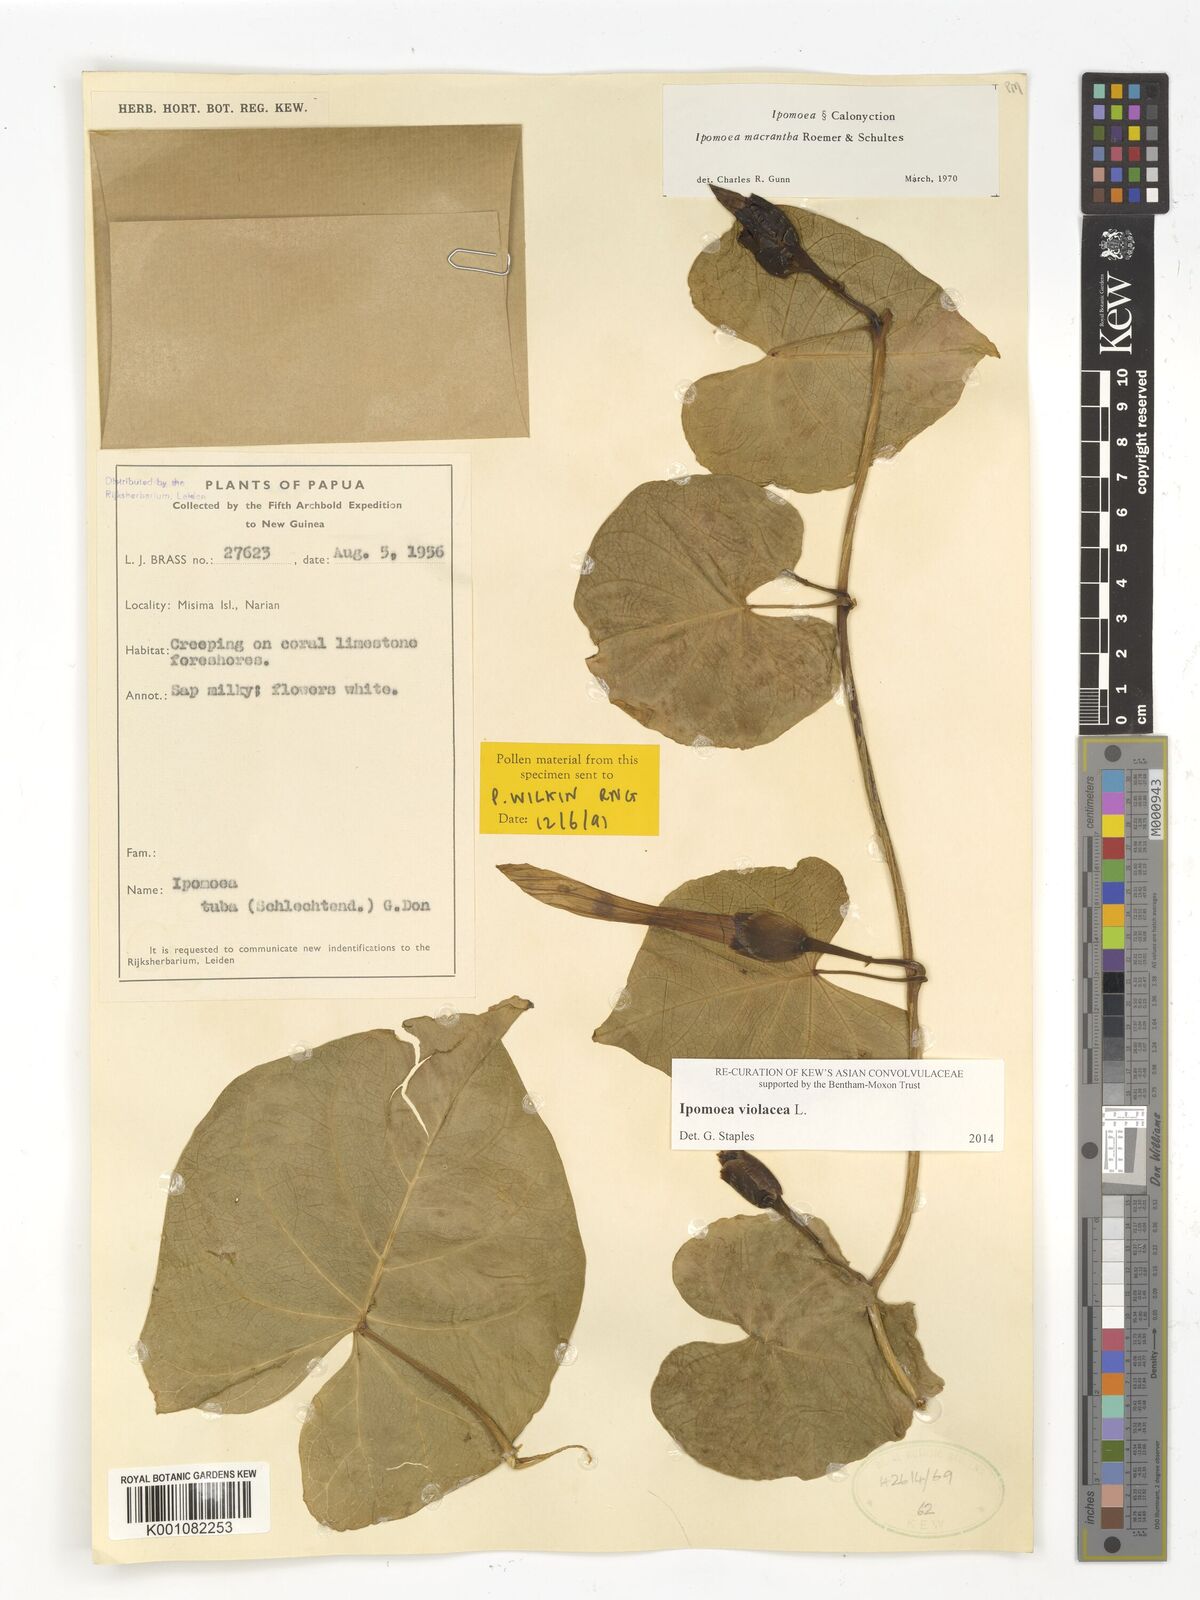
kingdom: Plantae
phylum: Tracheophyta
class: Magnoliopsida
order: Solanales
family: Convolvulaceae
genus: Ipomoea
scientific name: Ipomoea violacea
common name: Beach moonflower
